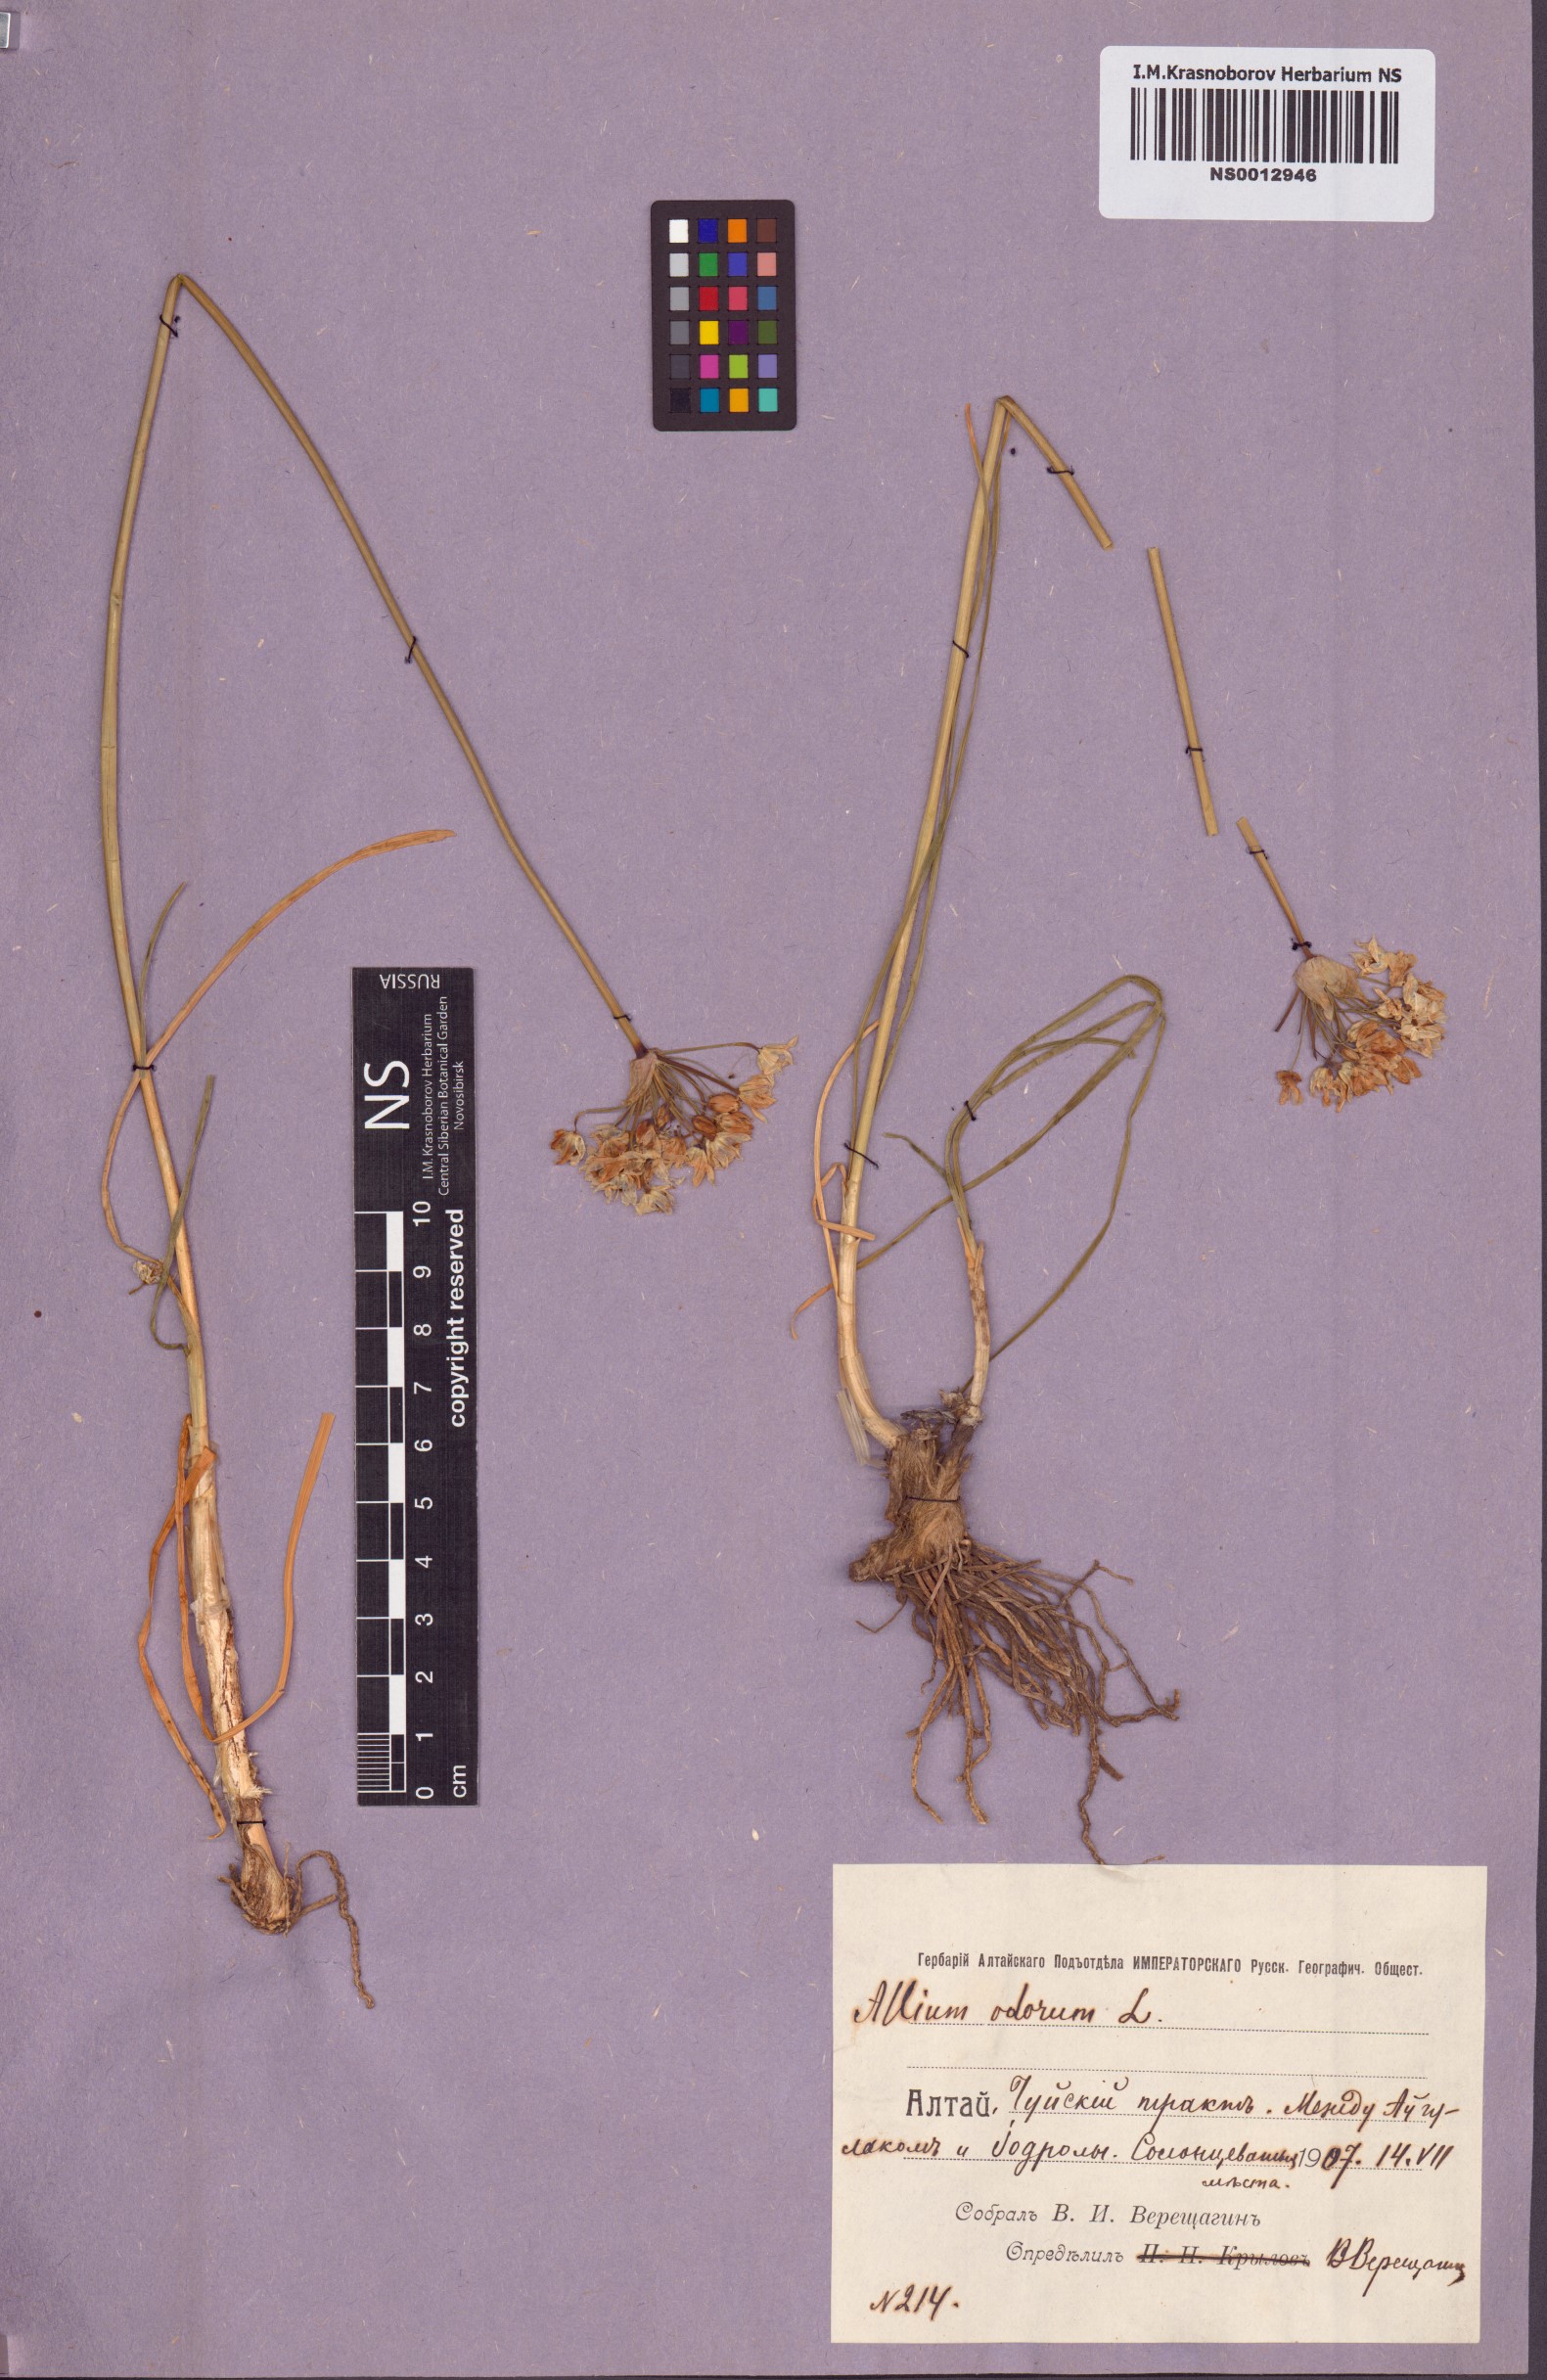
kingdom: Plantae
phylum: Tracheophyta
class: Liliopsida
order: Asparagales
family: Amaryllidaceae
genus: Allium
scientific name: Allium ramosum
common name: Fragrant garlic
